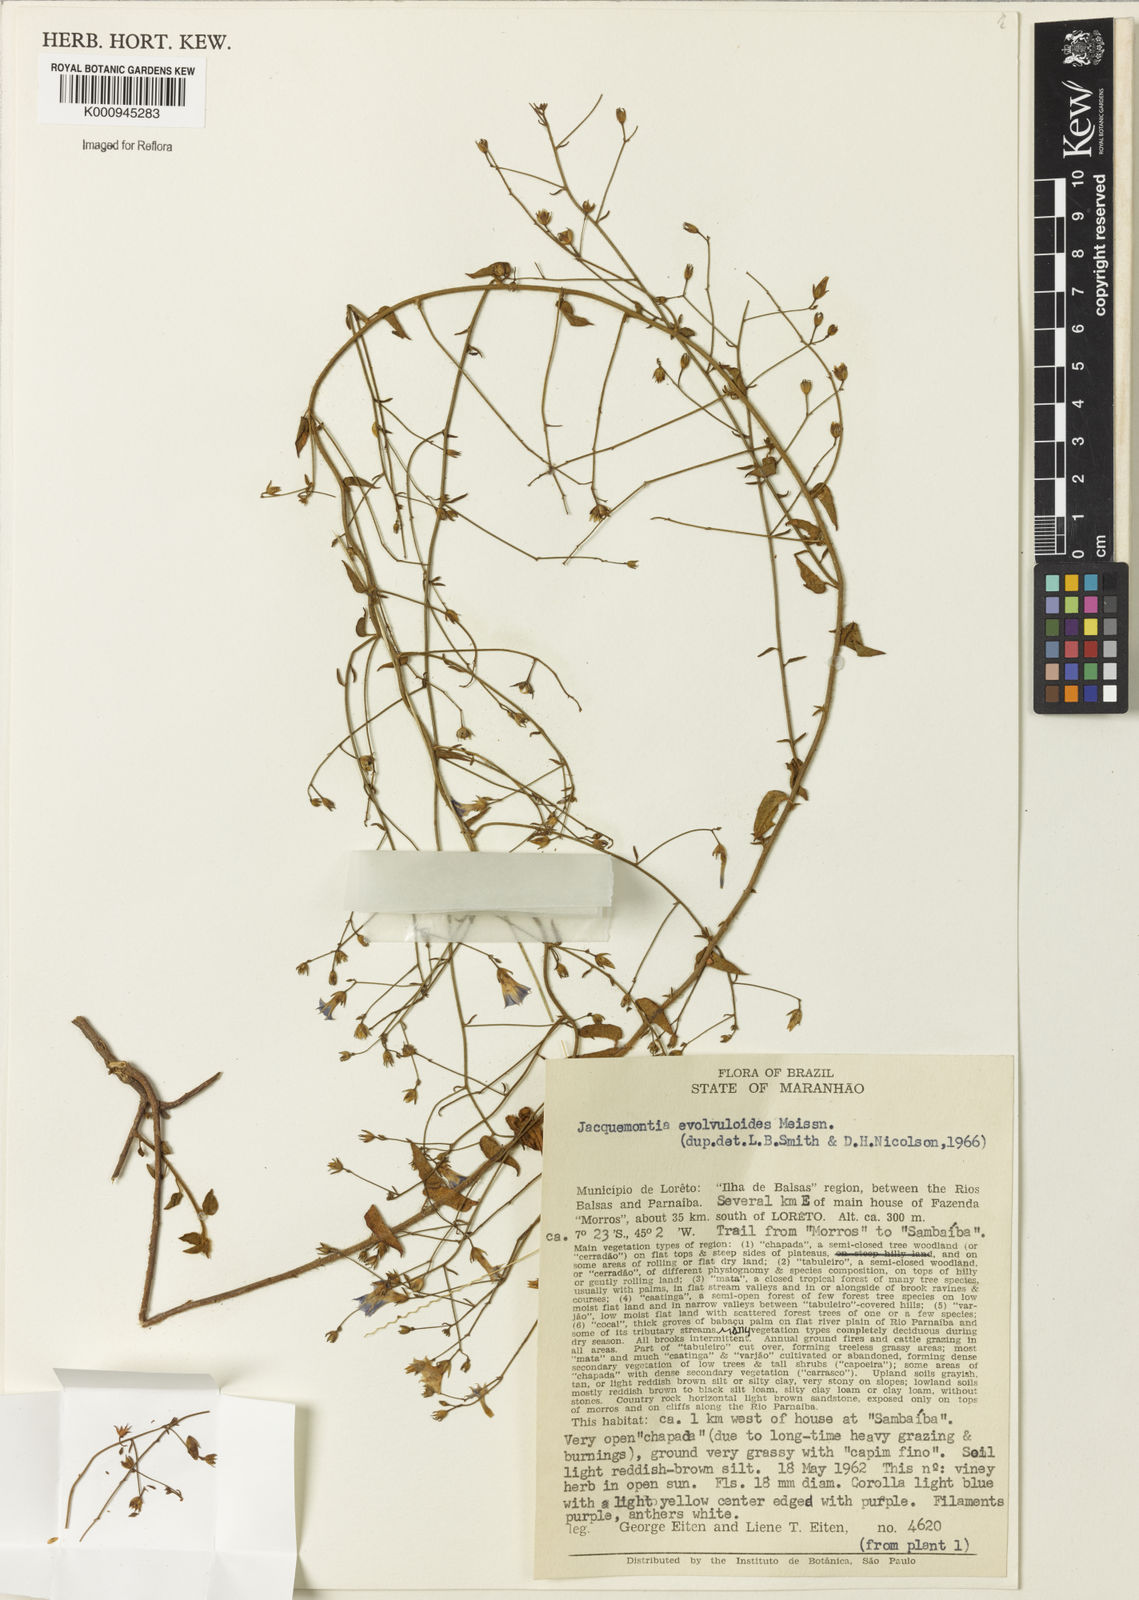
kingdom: Plantae
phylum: Tracheophyta
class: Magnoliopsida
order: Solanales
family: Convolvulaceae
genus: Jacquemontia
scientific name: Jacquemontia evolvuloides
